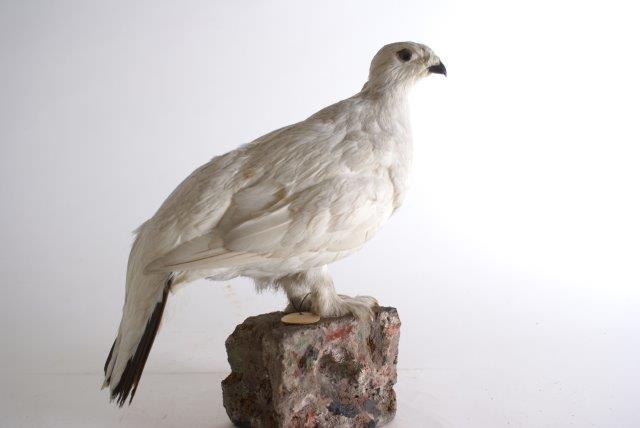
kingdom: Animalia
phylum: Chordata
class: Aves
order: Galliformes
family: Phasianidae
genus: Lagopus
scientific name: Lagopus muta
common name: Alpensneeuwhoen
